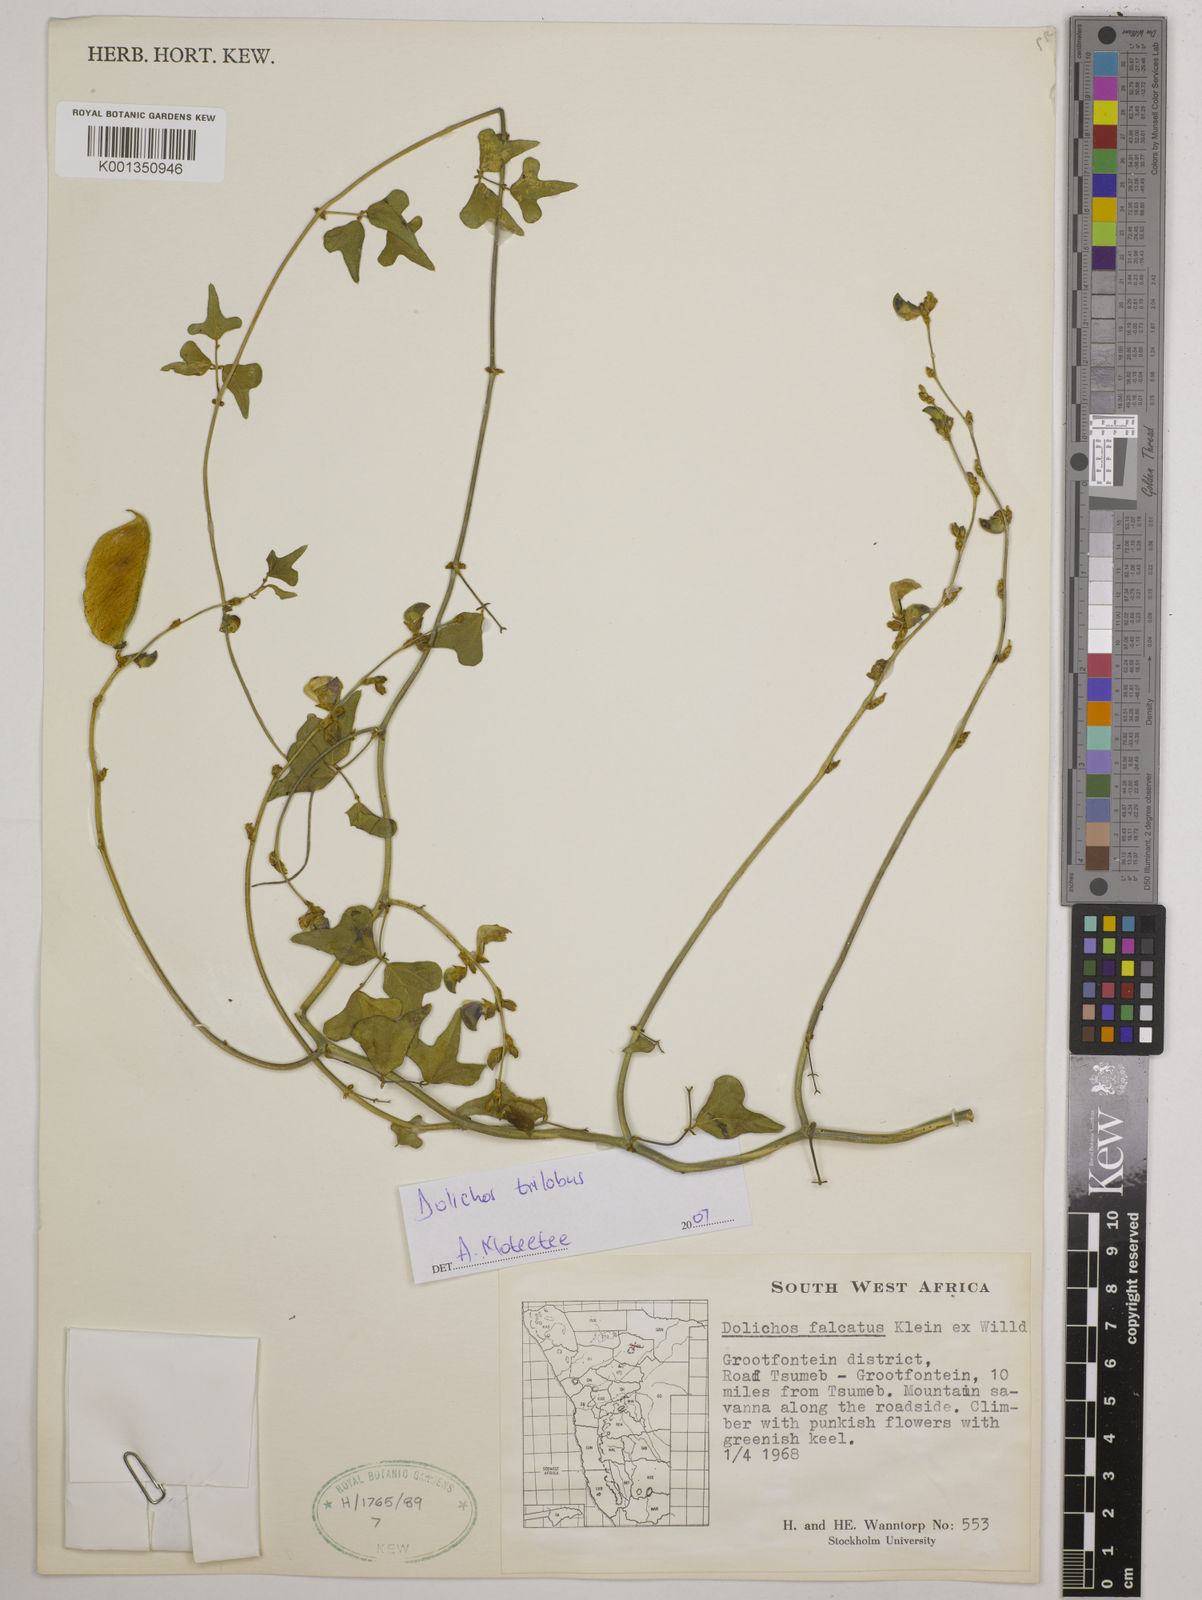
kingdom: Plantae
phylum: Tracheophyta
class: Magnoliopsida
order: Fabales
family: Fabaceae
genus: Dolichos
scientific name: Dolichos
